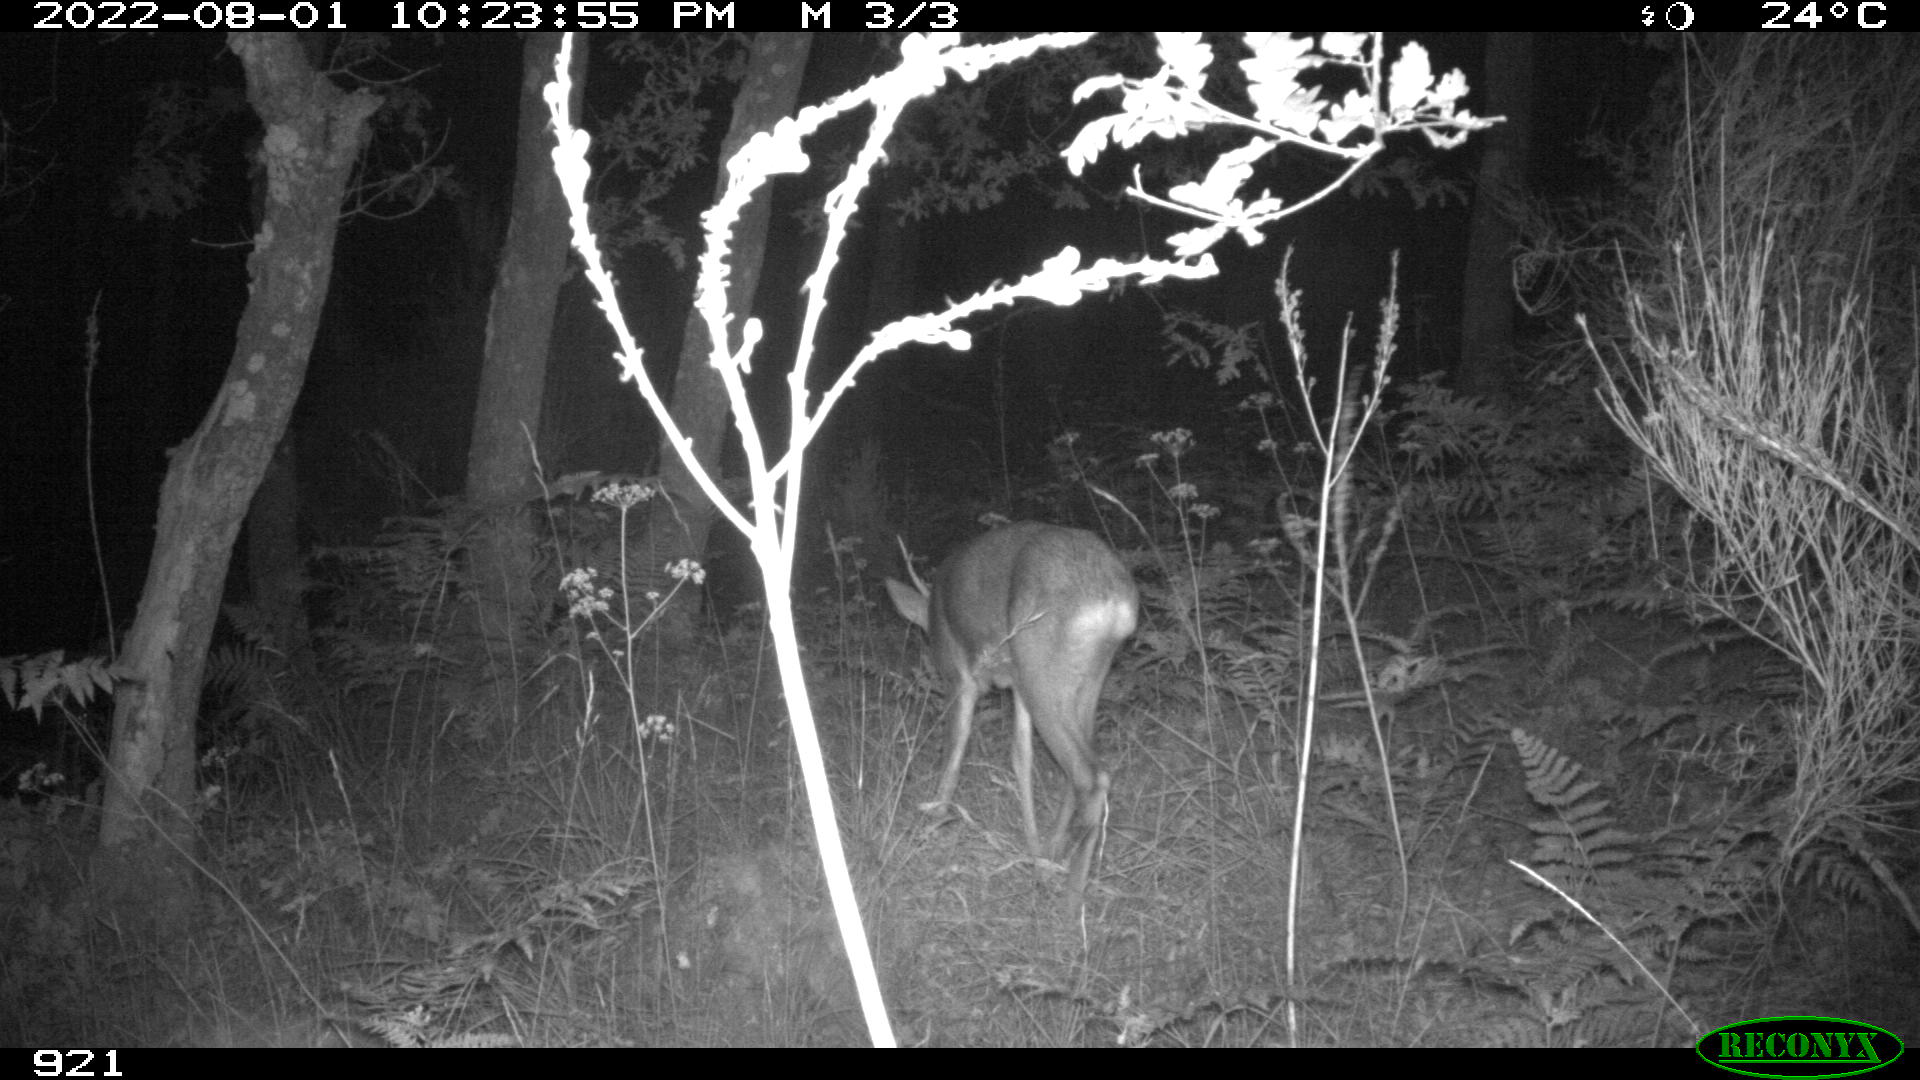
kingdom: Animalia
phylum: Chordata
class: Mammalia
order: Artiodactyla
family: Cervidae
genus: Capreolus
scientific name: Capreolus capreolus
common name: Western roe deer
